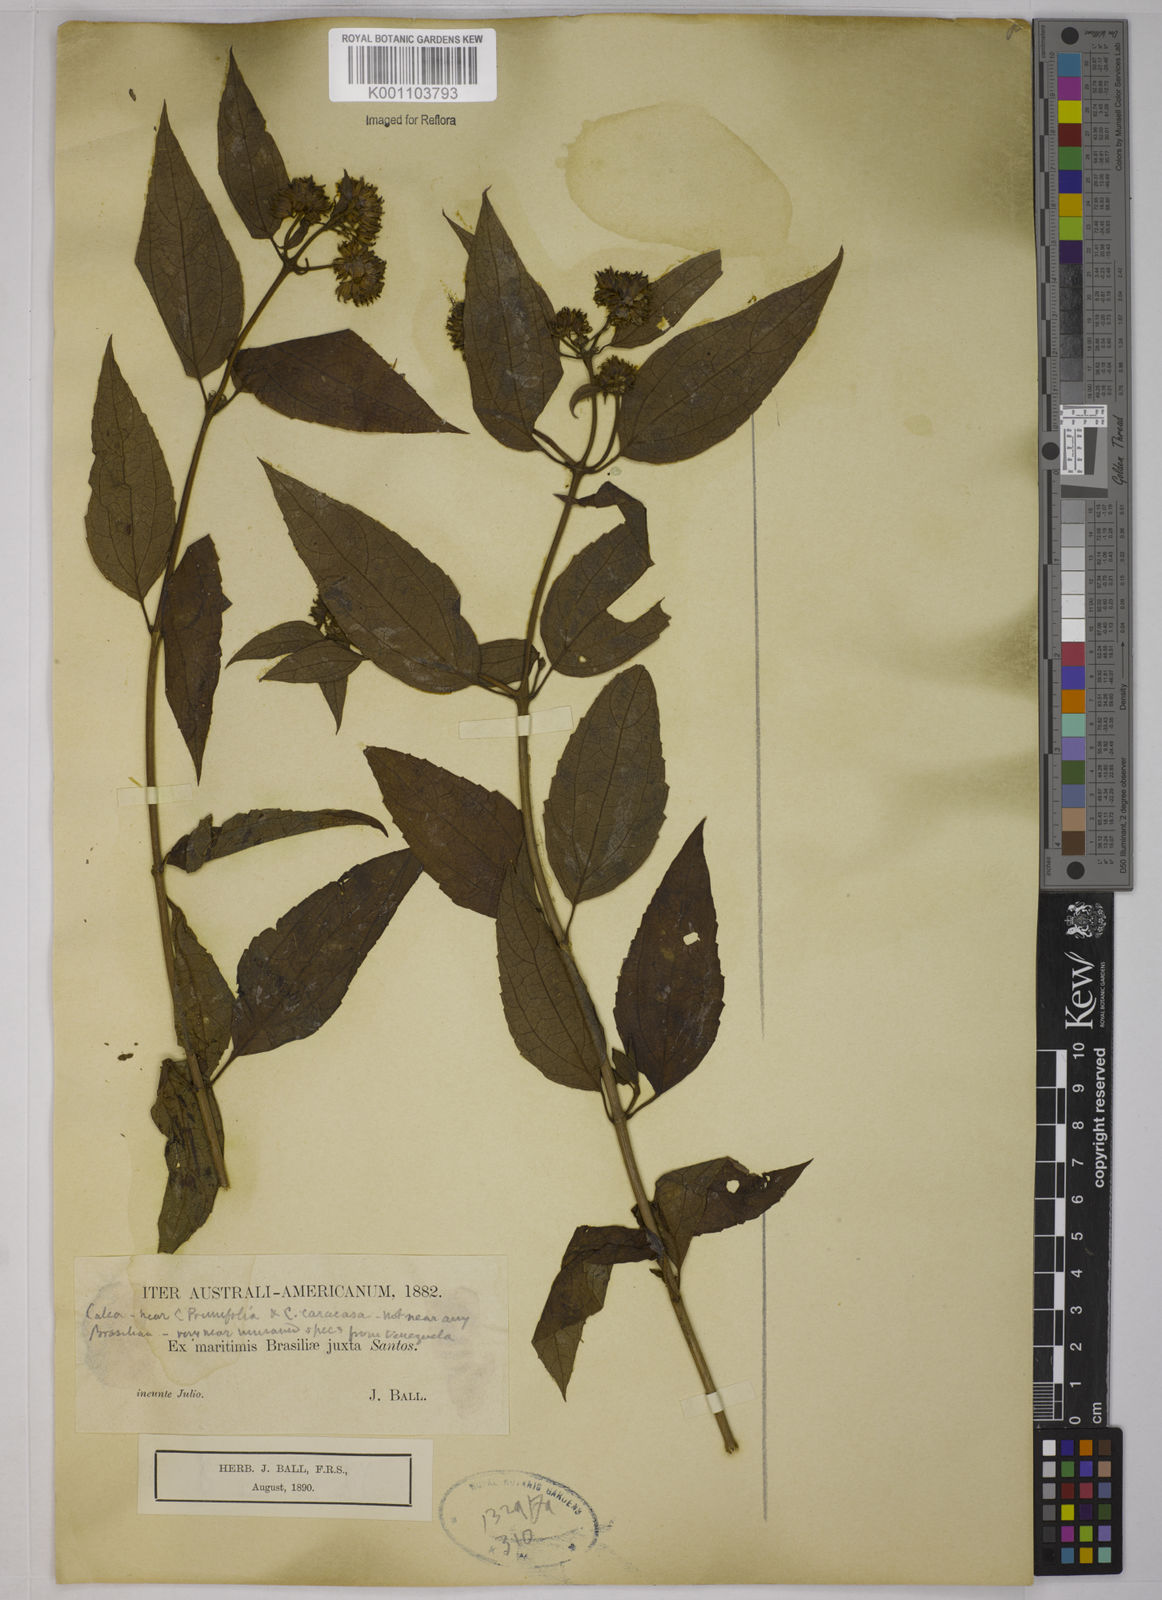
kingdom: Plantae
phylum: Tracheophyta
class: Magnoliopsida
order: Asterales
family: Asteraceae
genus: Calea
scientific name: Calea
